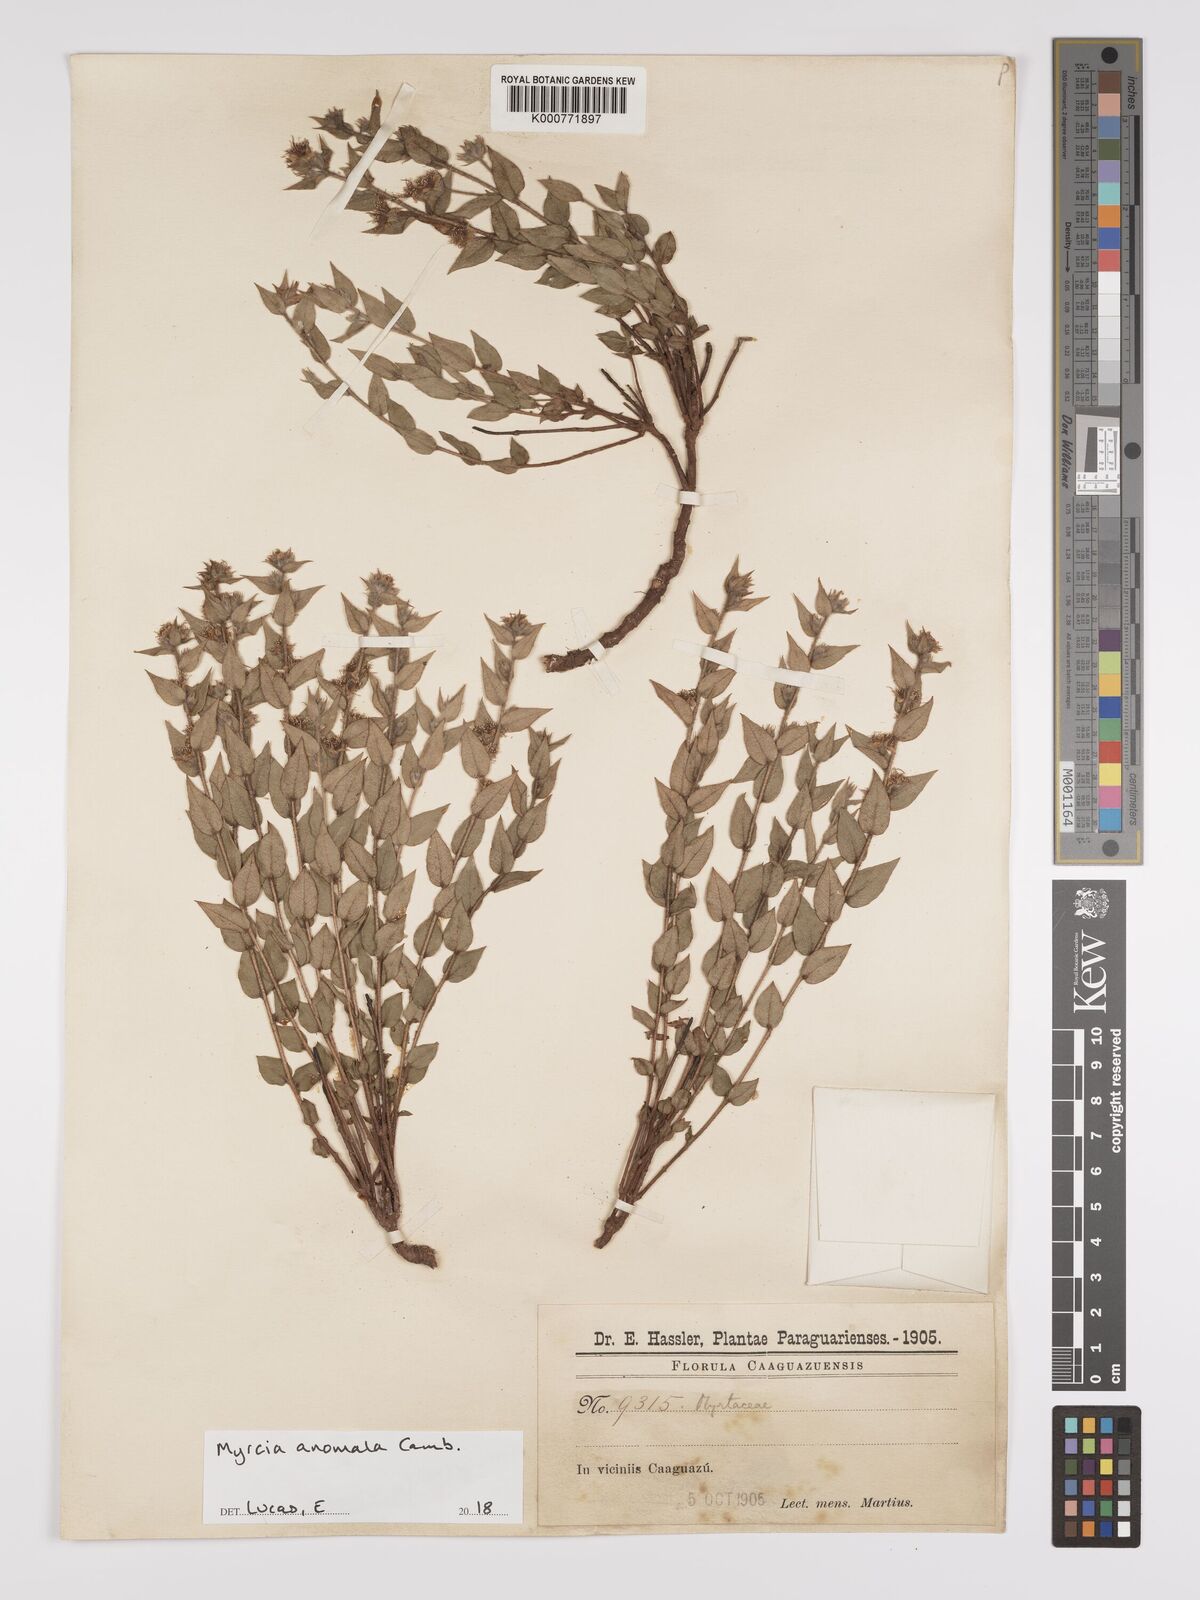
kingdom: Plantae
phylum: Tracheophyta
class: Magnoliopsida
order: Myrtales
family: Myrtaceae
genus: Myrcia
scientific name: Myrcia anomala
